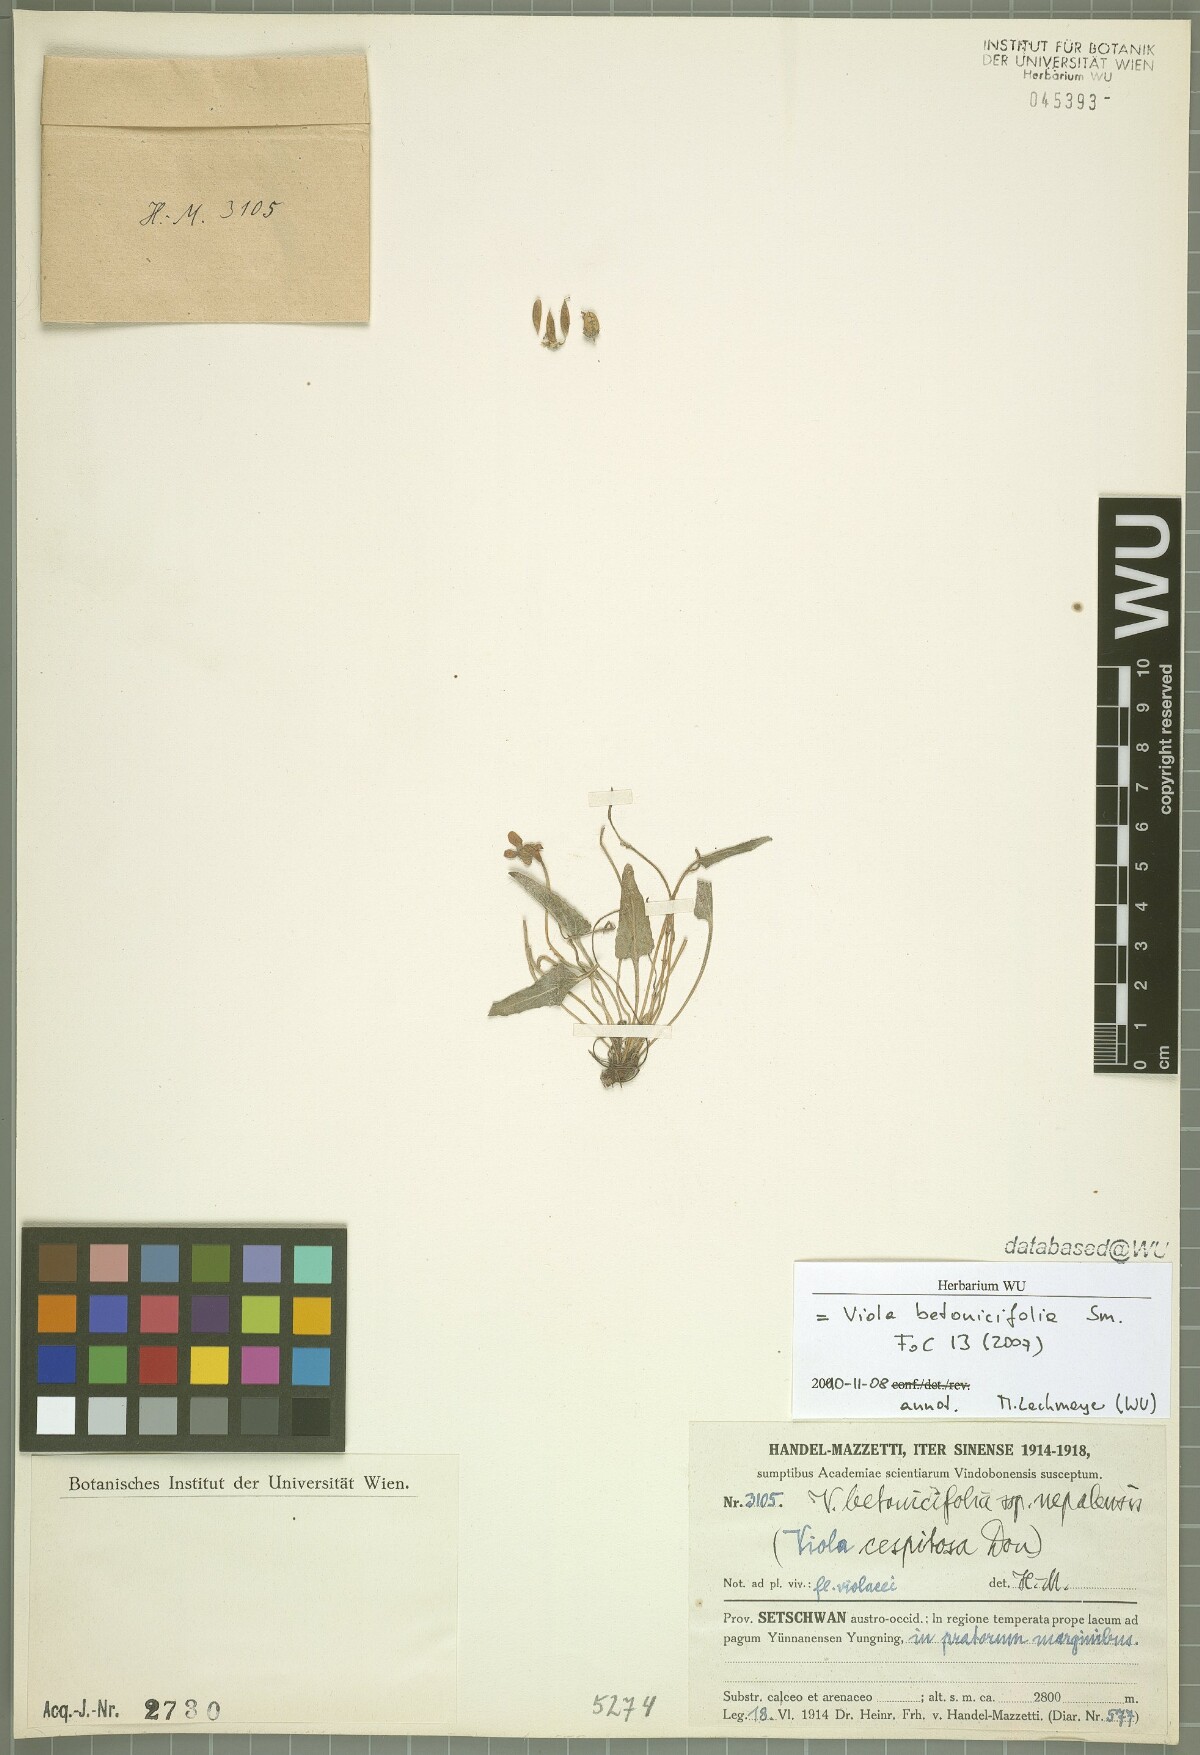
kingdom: Plantae
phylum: Tracheophyta
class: Magnoliopsida
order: Malpighiales
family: Violaceae
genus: Viola
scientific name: Viola betonicifolia
